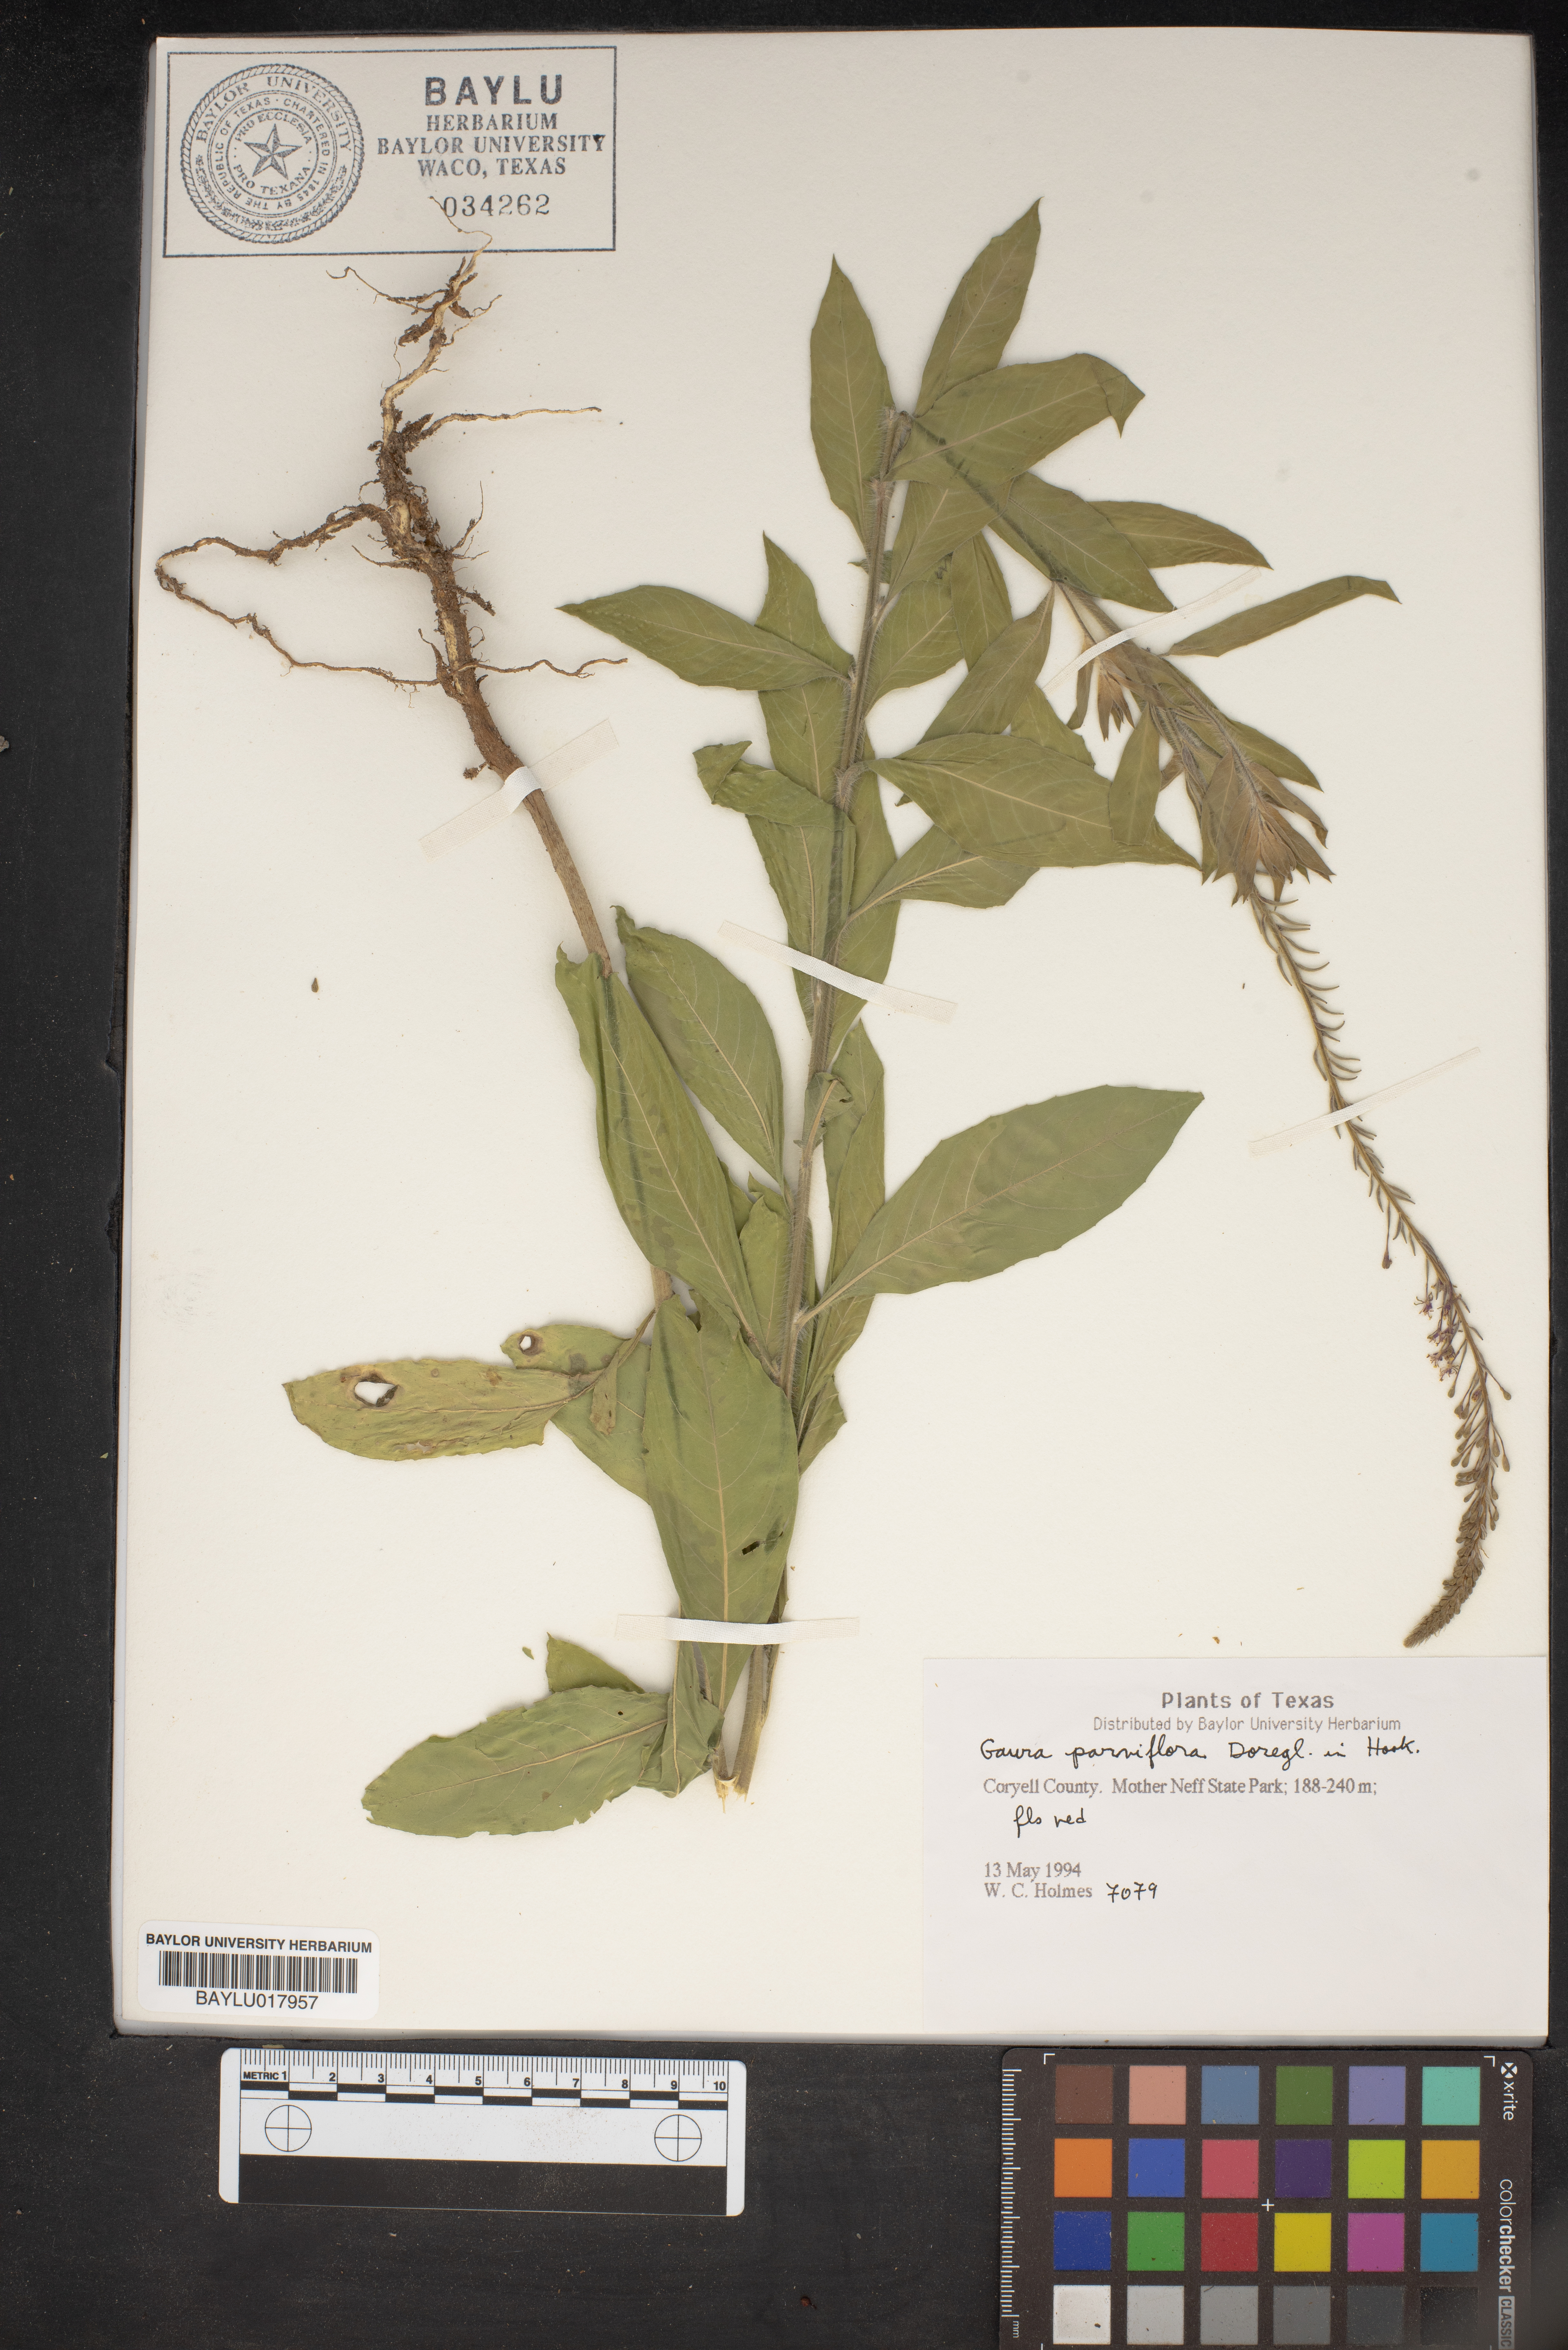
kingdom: Plantae
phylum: Tracheophyta
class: Magnoliopsida
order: Myrtales
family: Onagraceae
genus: Oenothera
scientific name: Oenothera curtiflora
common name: Velvetweed
